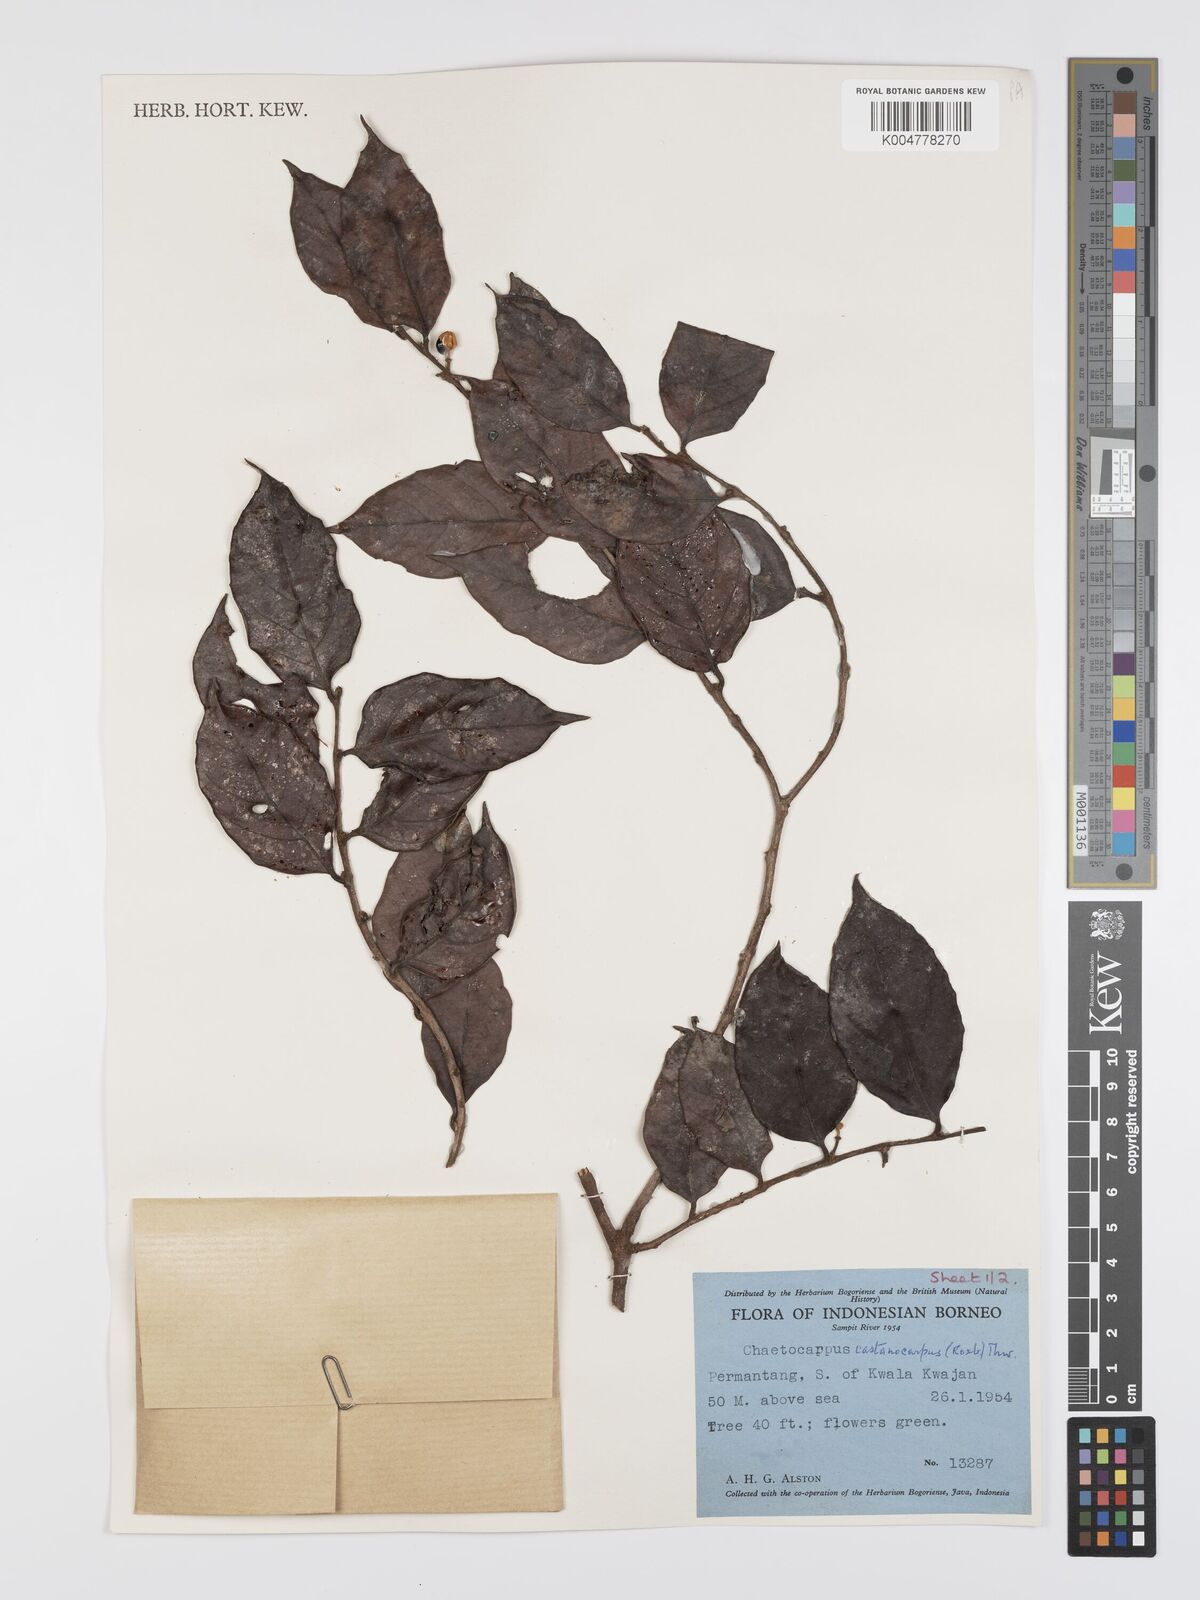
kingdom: Plantae
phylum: Tracheophyta
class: Magnoliopsida
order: Malpighiales
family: Peraceae
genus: Chaetocarpus
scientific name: Chaetocarpus castanocarpus
